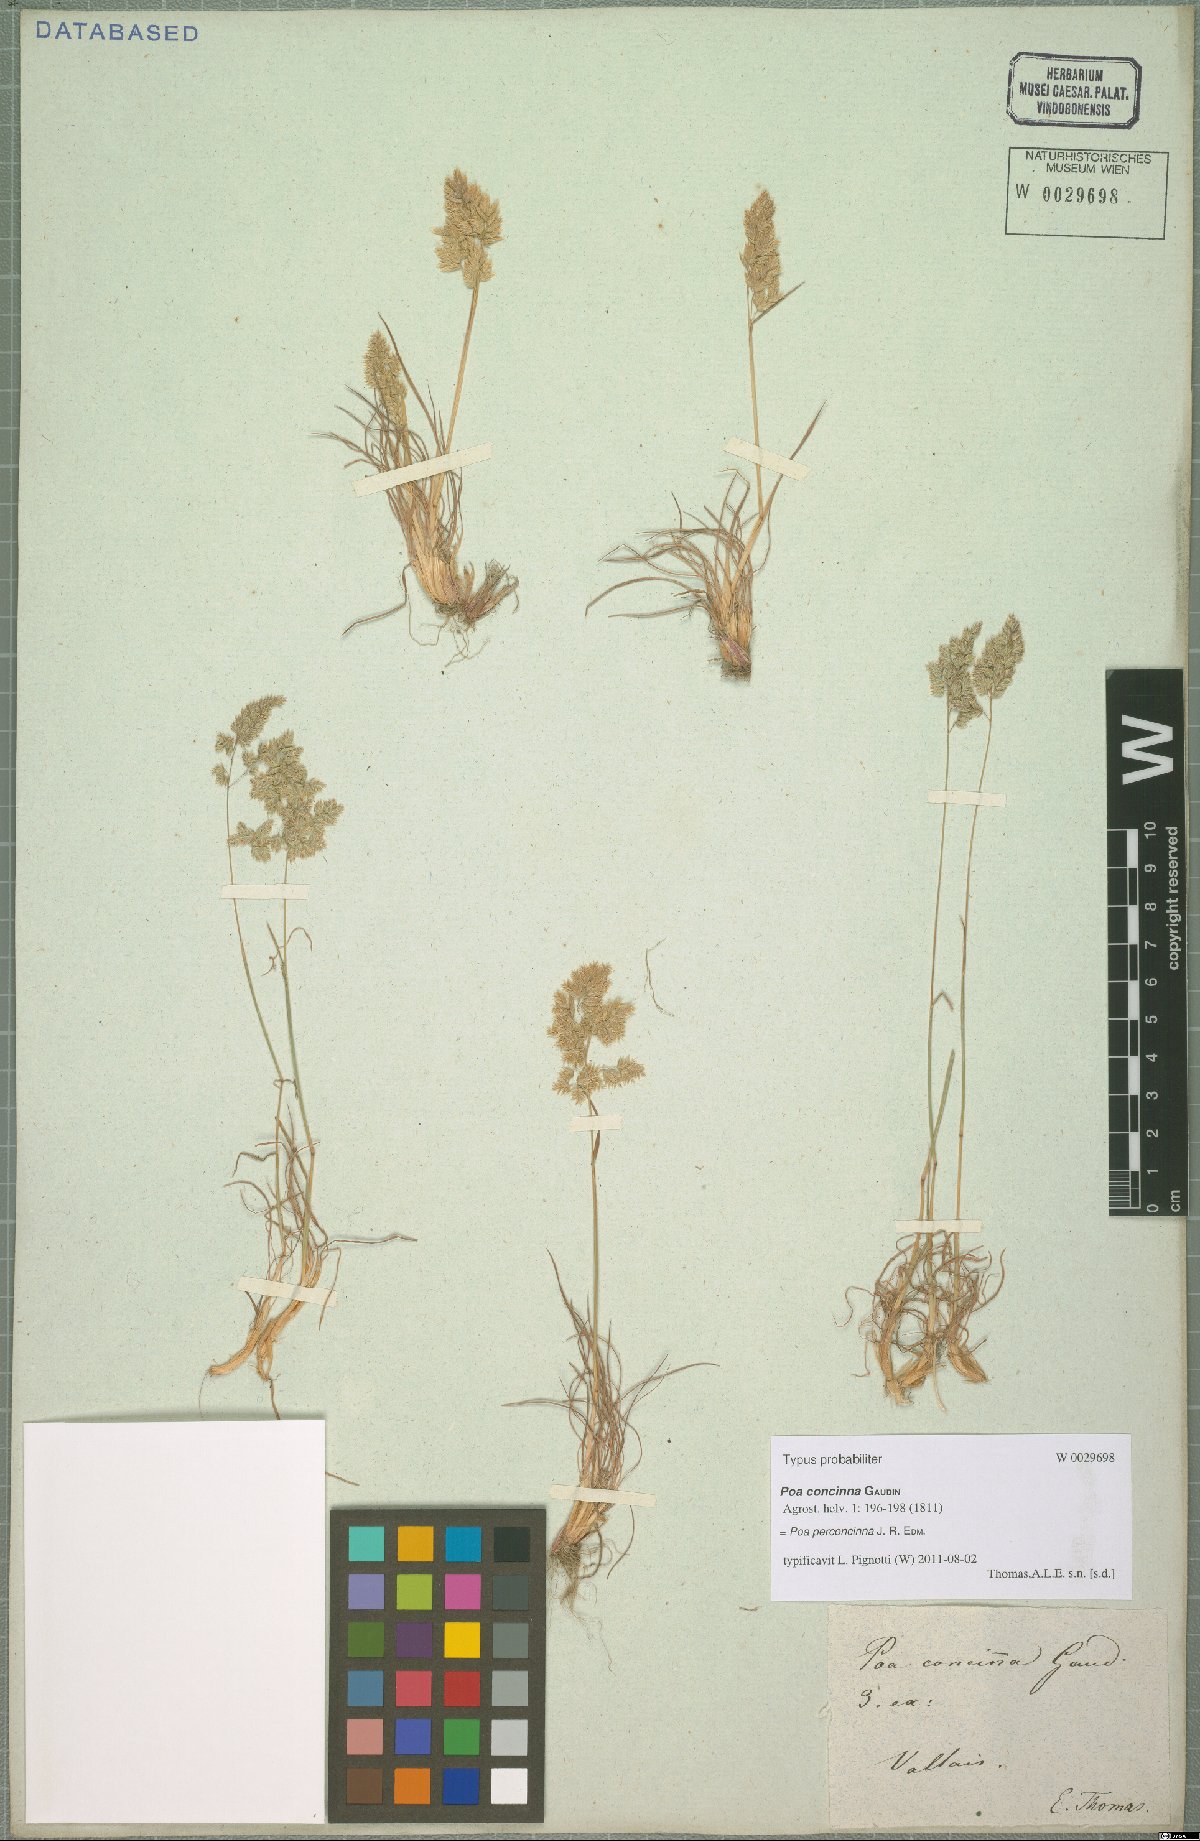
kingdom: Plantae
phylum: Tracheophyta
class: Liliopsida
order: Poales
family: Poaceae
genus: Poa
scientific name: Poa perconcinna
